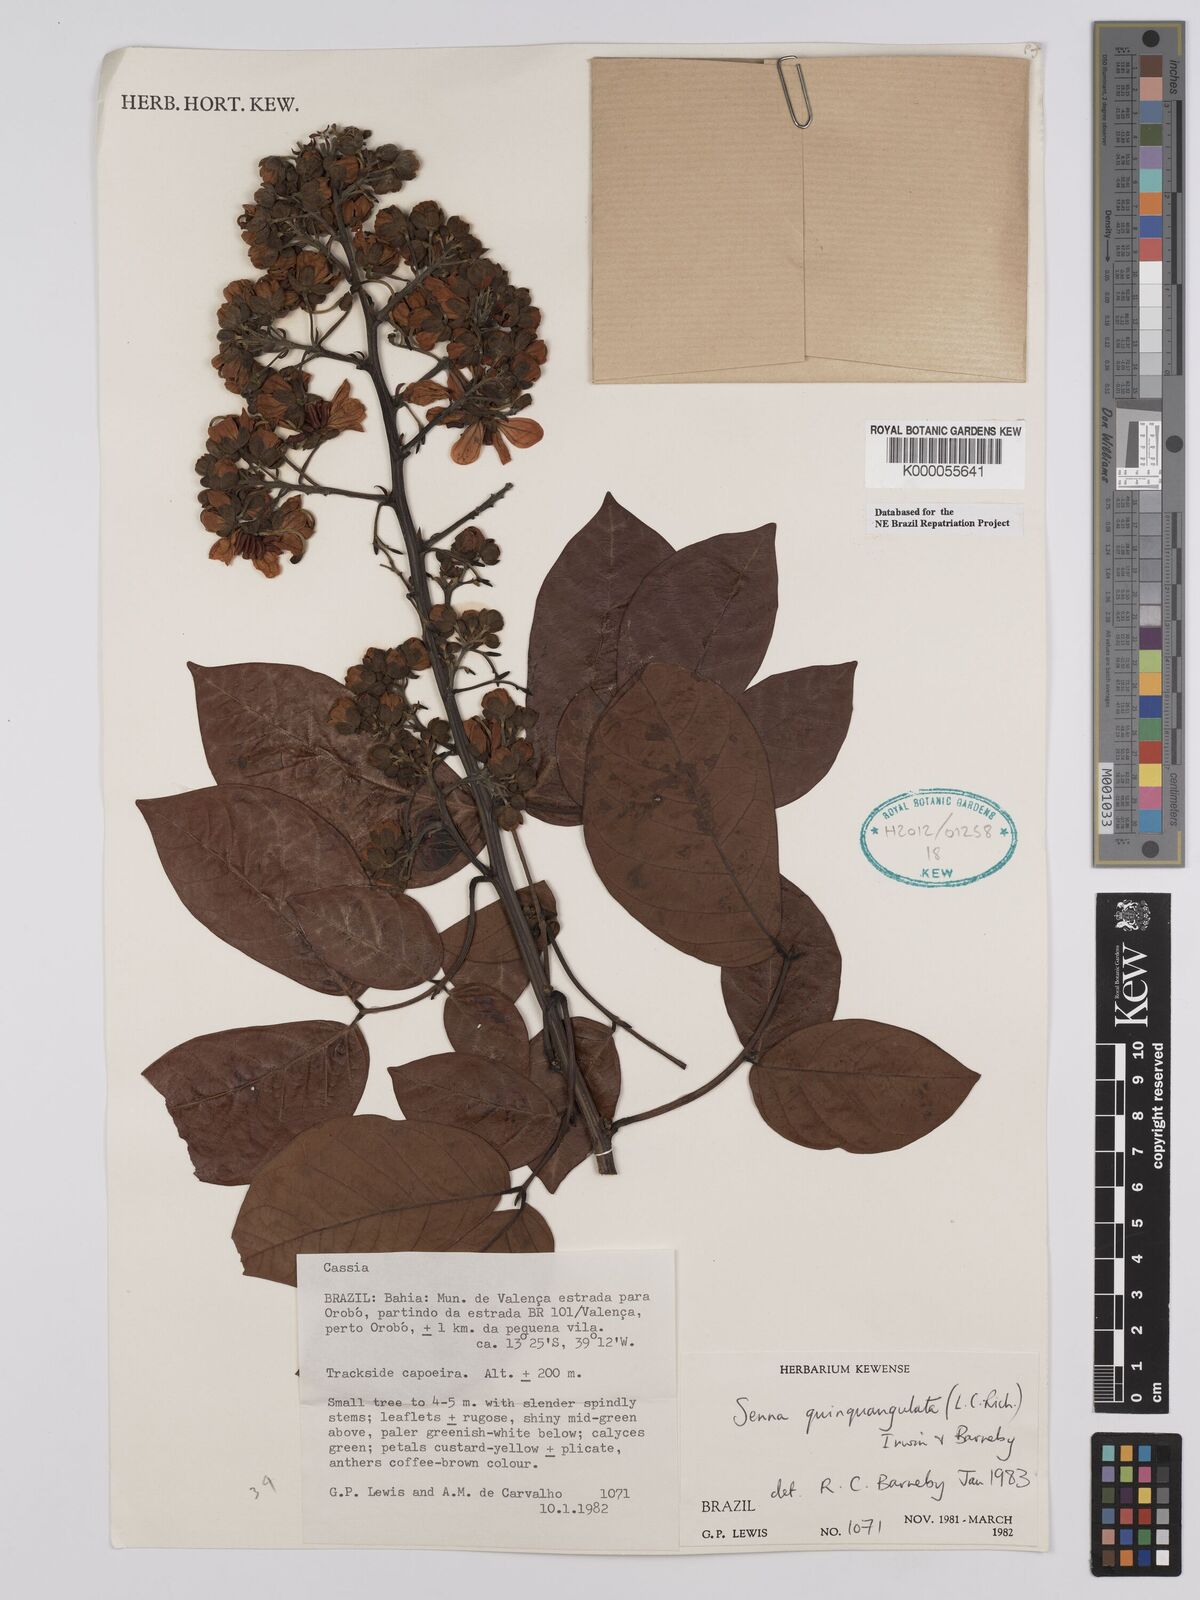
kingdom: Plantae
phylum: Tracheophyta
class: Magnoliopsida
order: Fabales
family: Fabaceae
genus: Senna
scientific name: Senna quinquangulata
